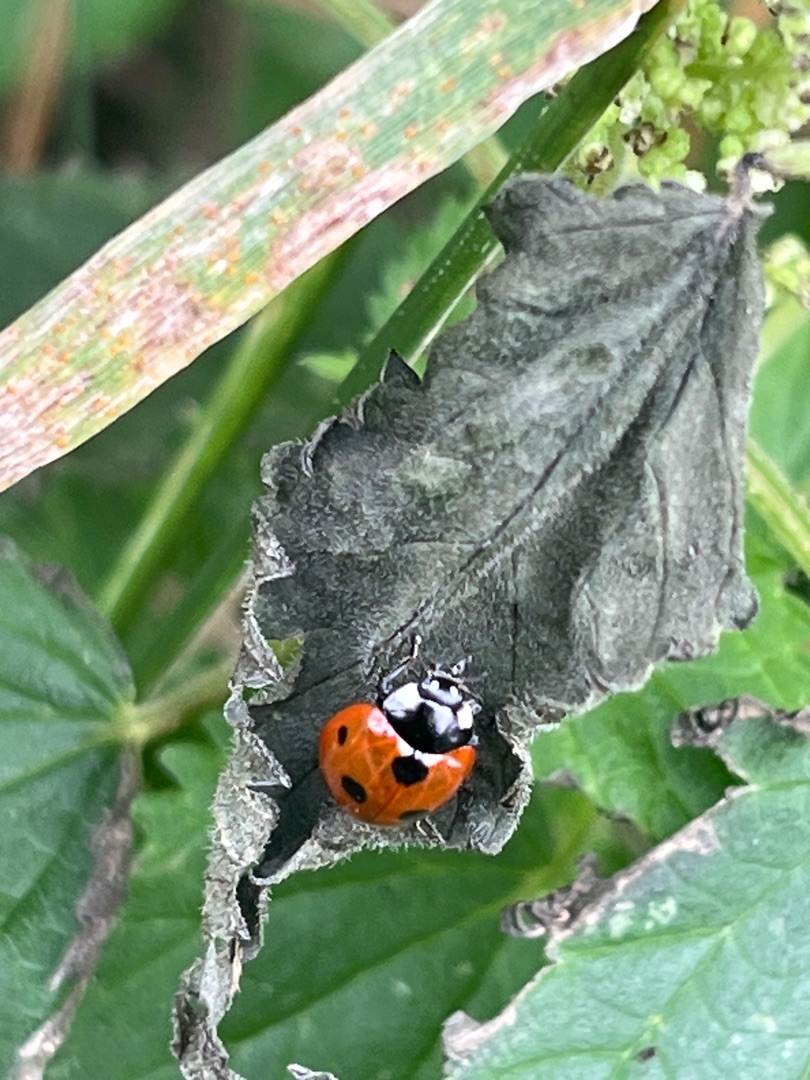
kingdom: Animalia
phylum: Arthropoda
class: Insecta
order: Coleoptera
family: Coccinellidae
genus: Coccinella
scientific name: Coccinella septempunctata
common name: Syvplettet mariehøne
